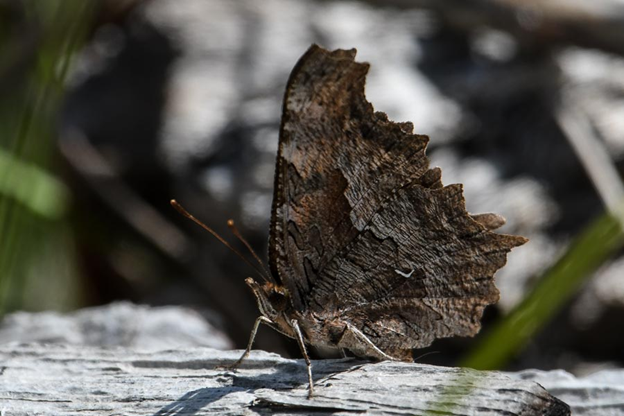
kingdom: Animalia
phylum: Arthropoda
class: Insecta
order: Lepidoptera
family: Nymphalidae
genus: Polygonia
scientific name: Polygonia gracilis
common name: Hoary Comma
